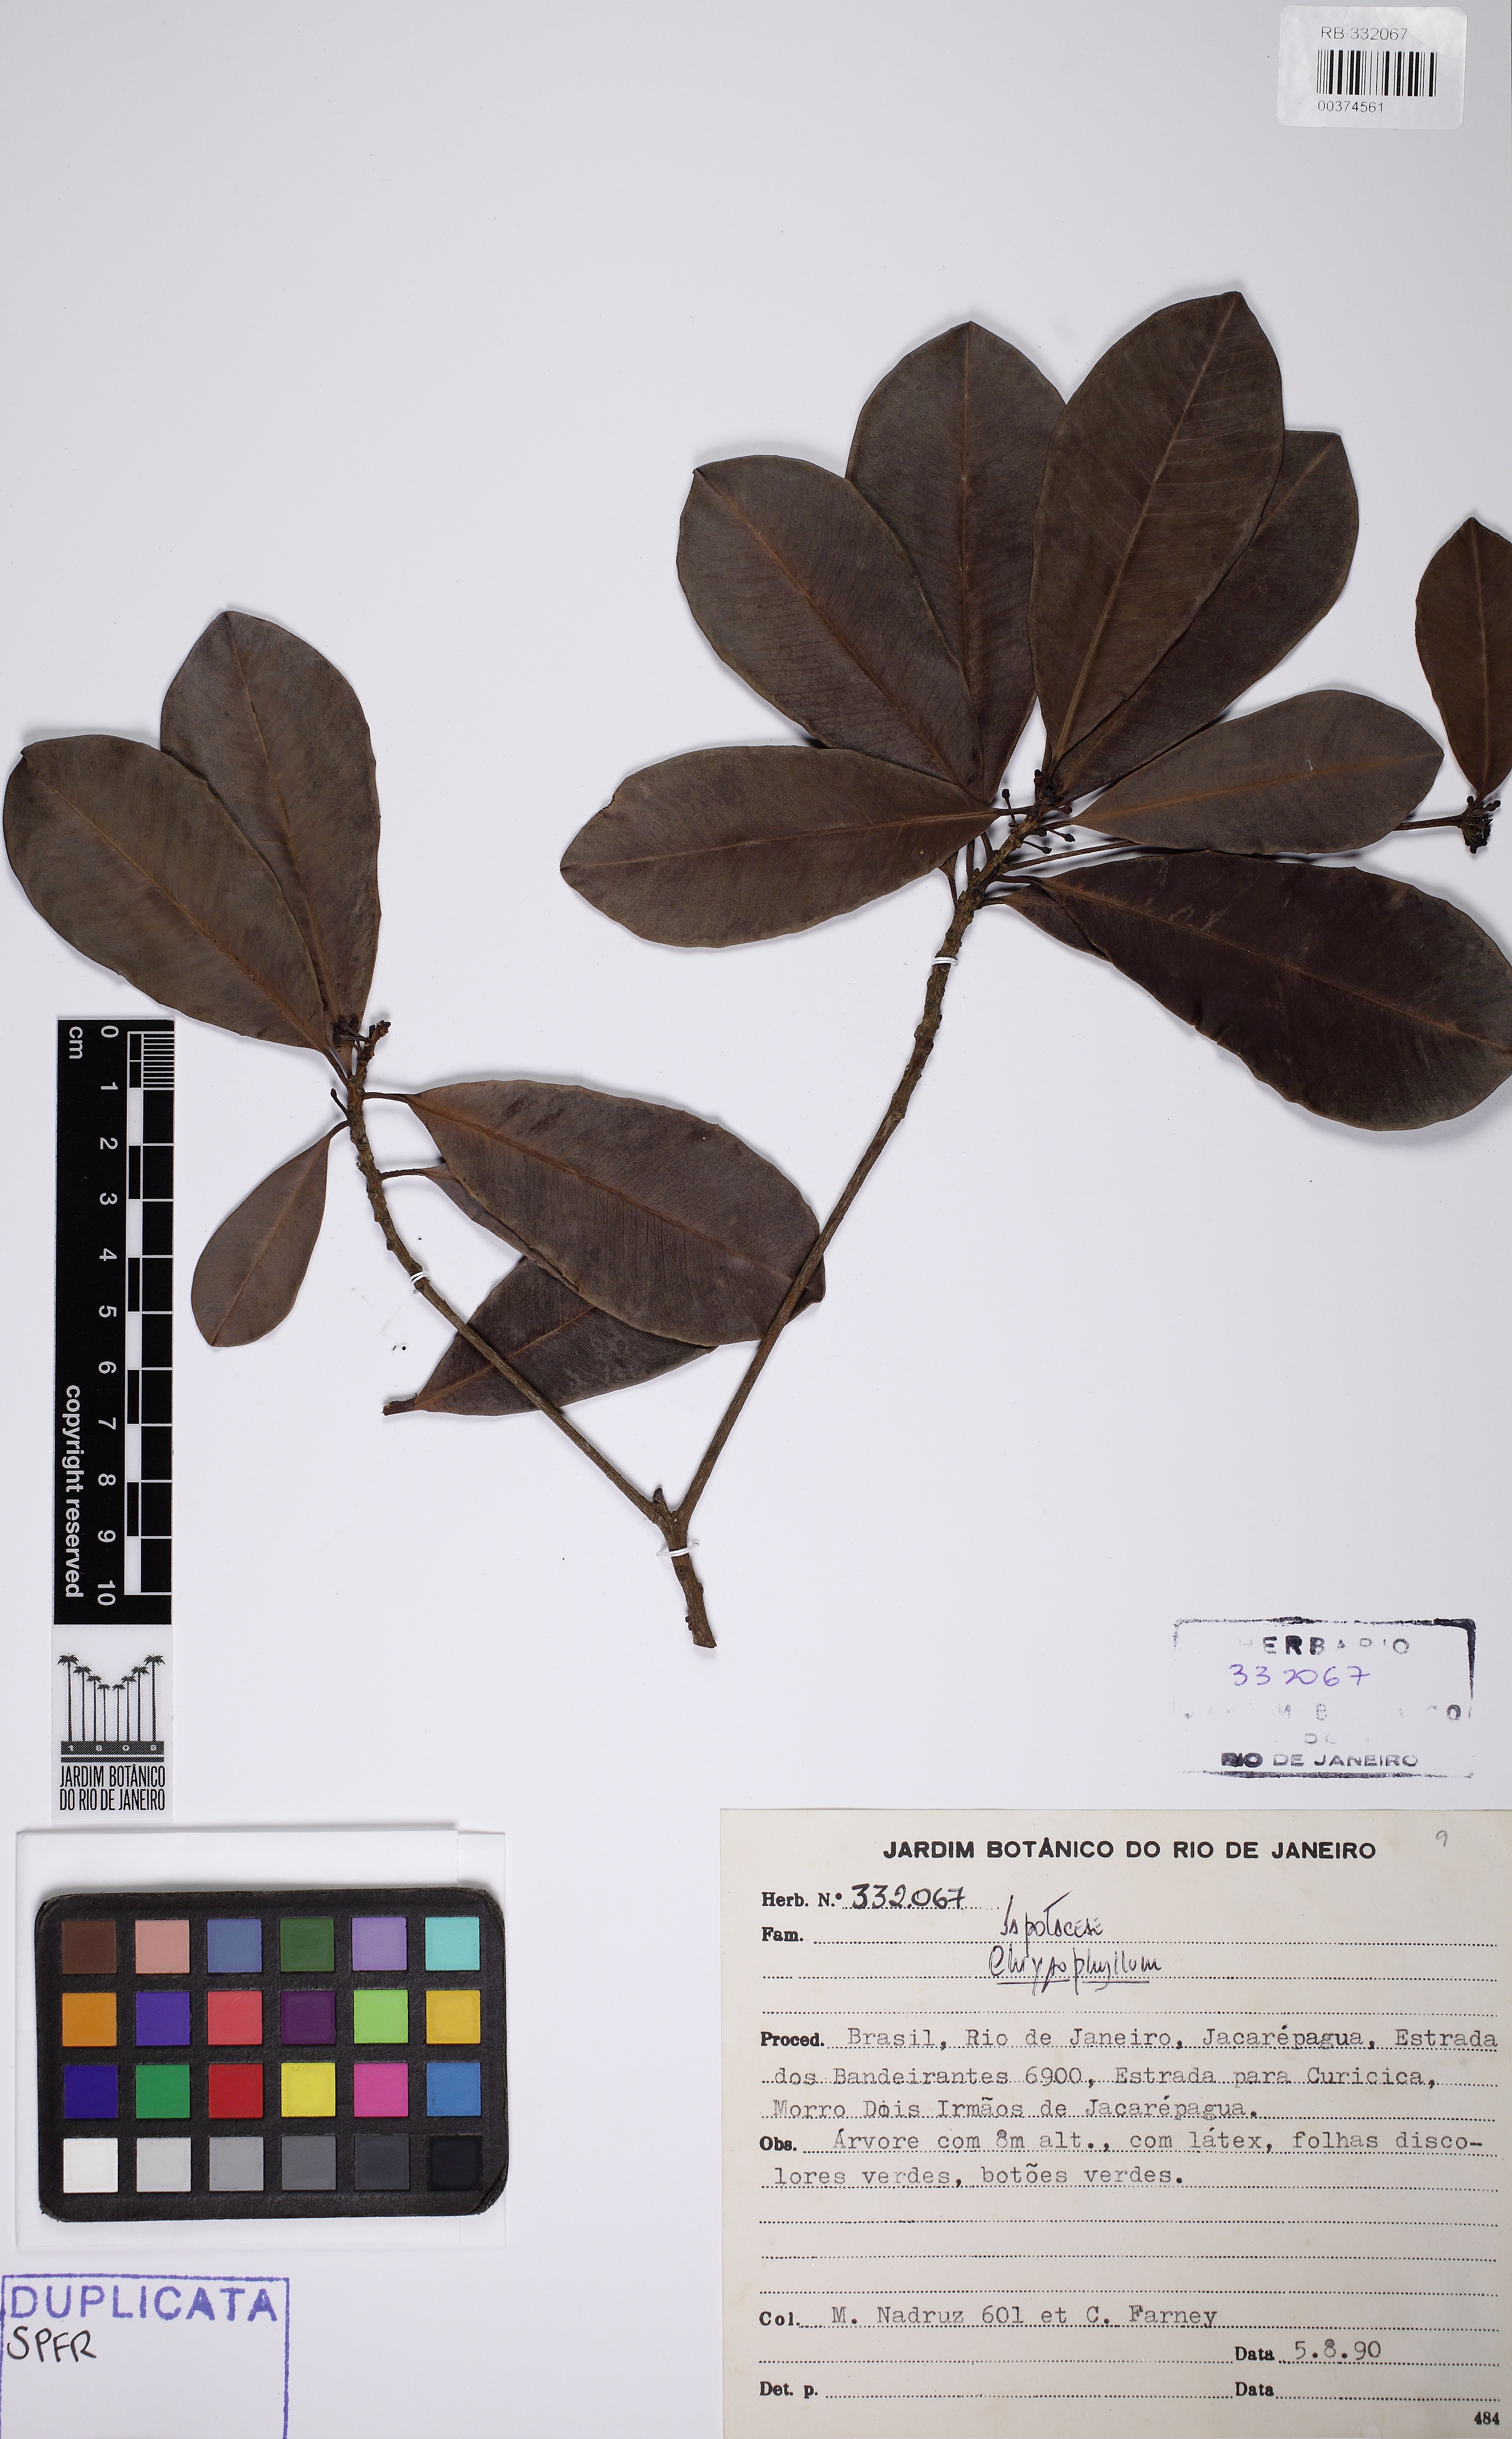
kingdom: Plantae
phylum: Tracheophyta
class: Magnoliopsida
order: Ericales
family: Sapotaceae
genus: Manilkara
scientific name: Manilkara subsericea
